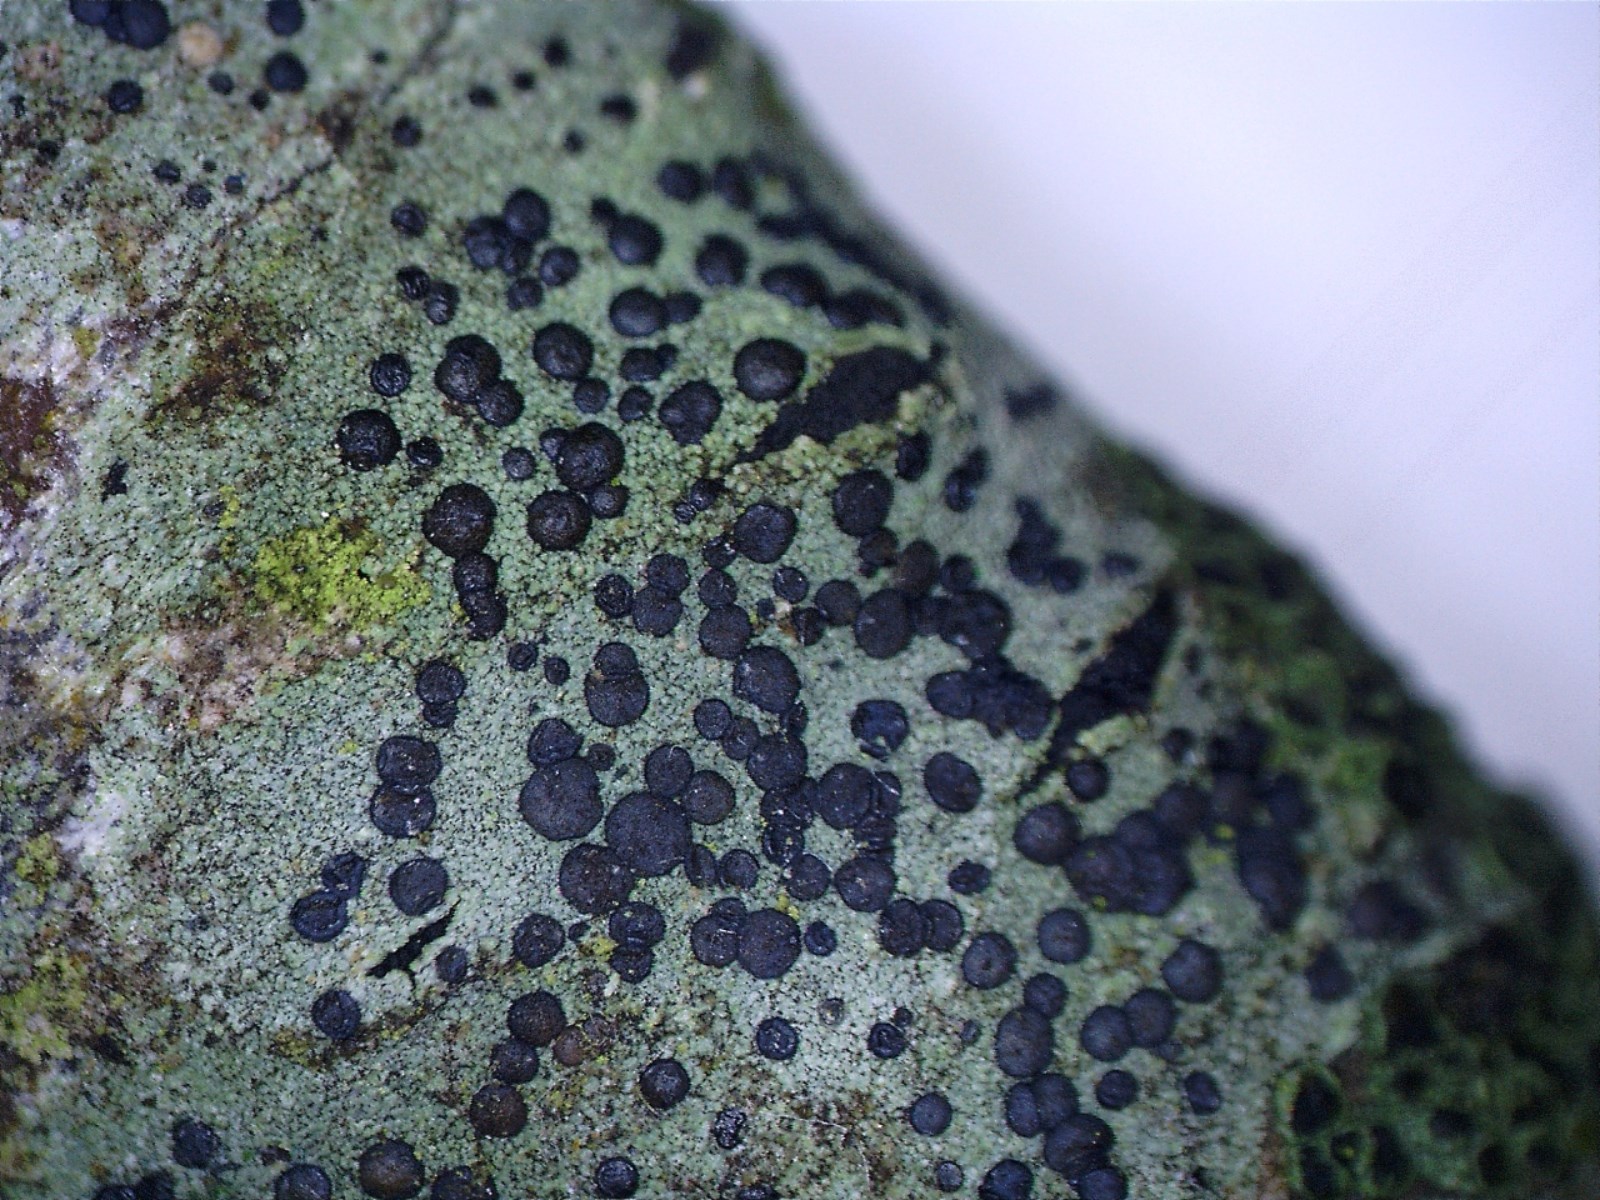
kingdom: Fungi
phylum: Ascomycota
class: Lecanoromycetes
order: Lecanorales
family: Lecanoraceae
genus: Lecidella
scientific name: Lecidella elaeochroma
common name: grågrøn skivelav
